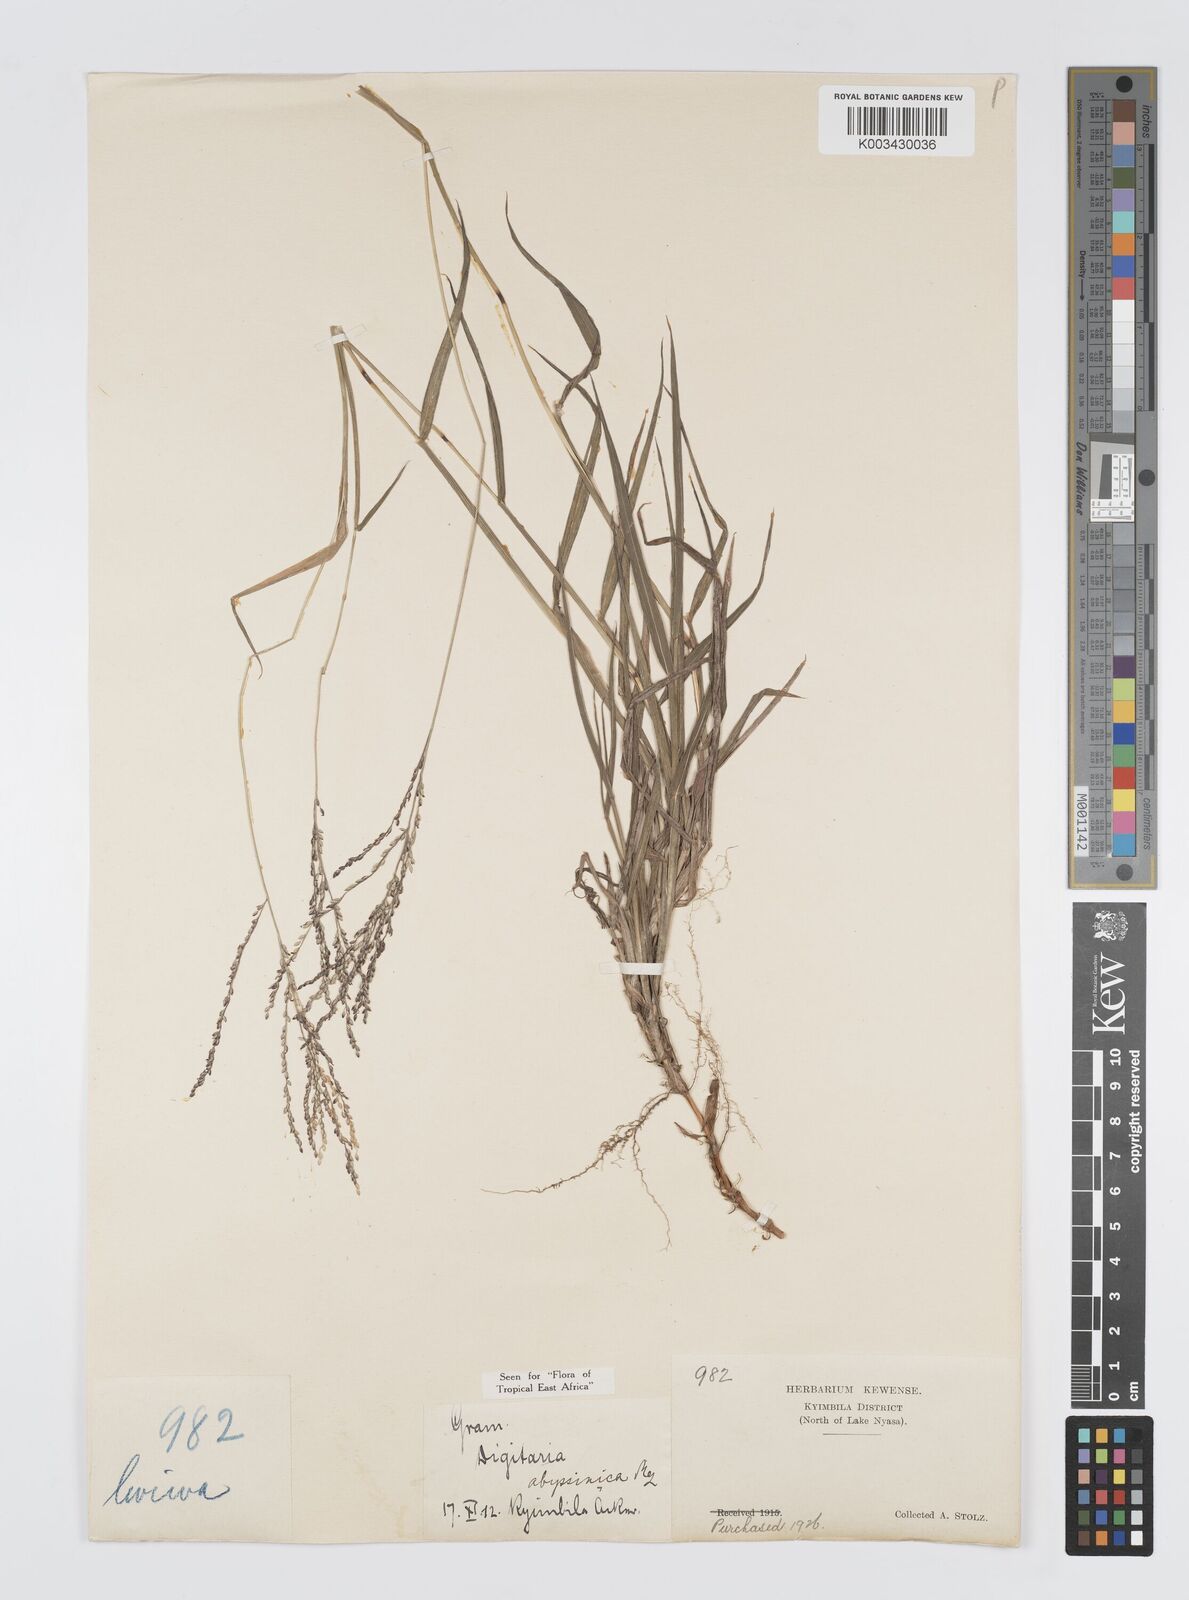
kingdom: Plantae
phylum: Tracheophyta
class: Liliopsida
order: Poales
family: Poaceae
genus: Digitaria
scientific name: Digitaria abyssinica
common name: African couchgrass
